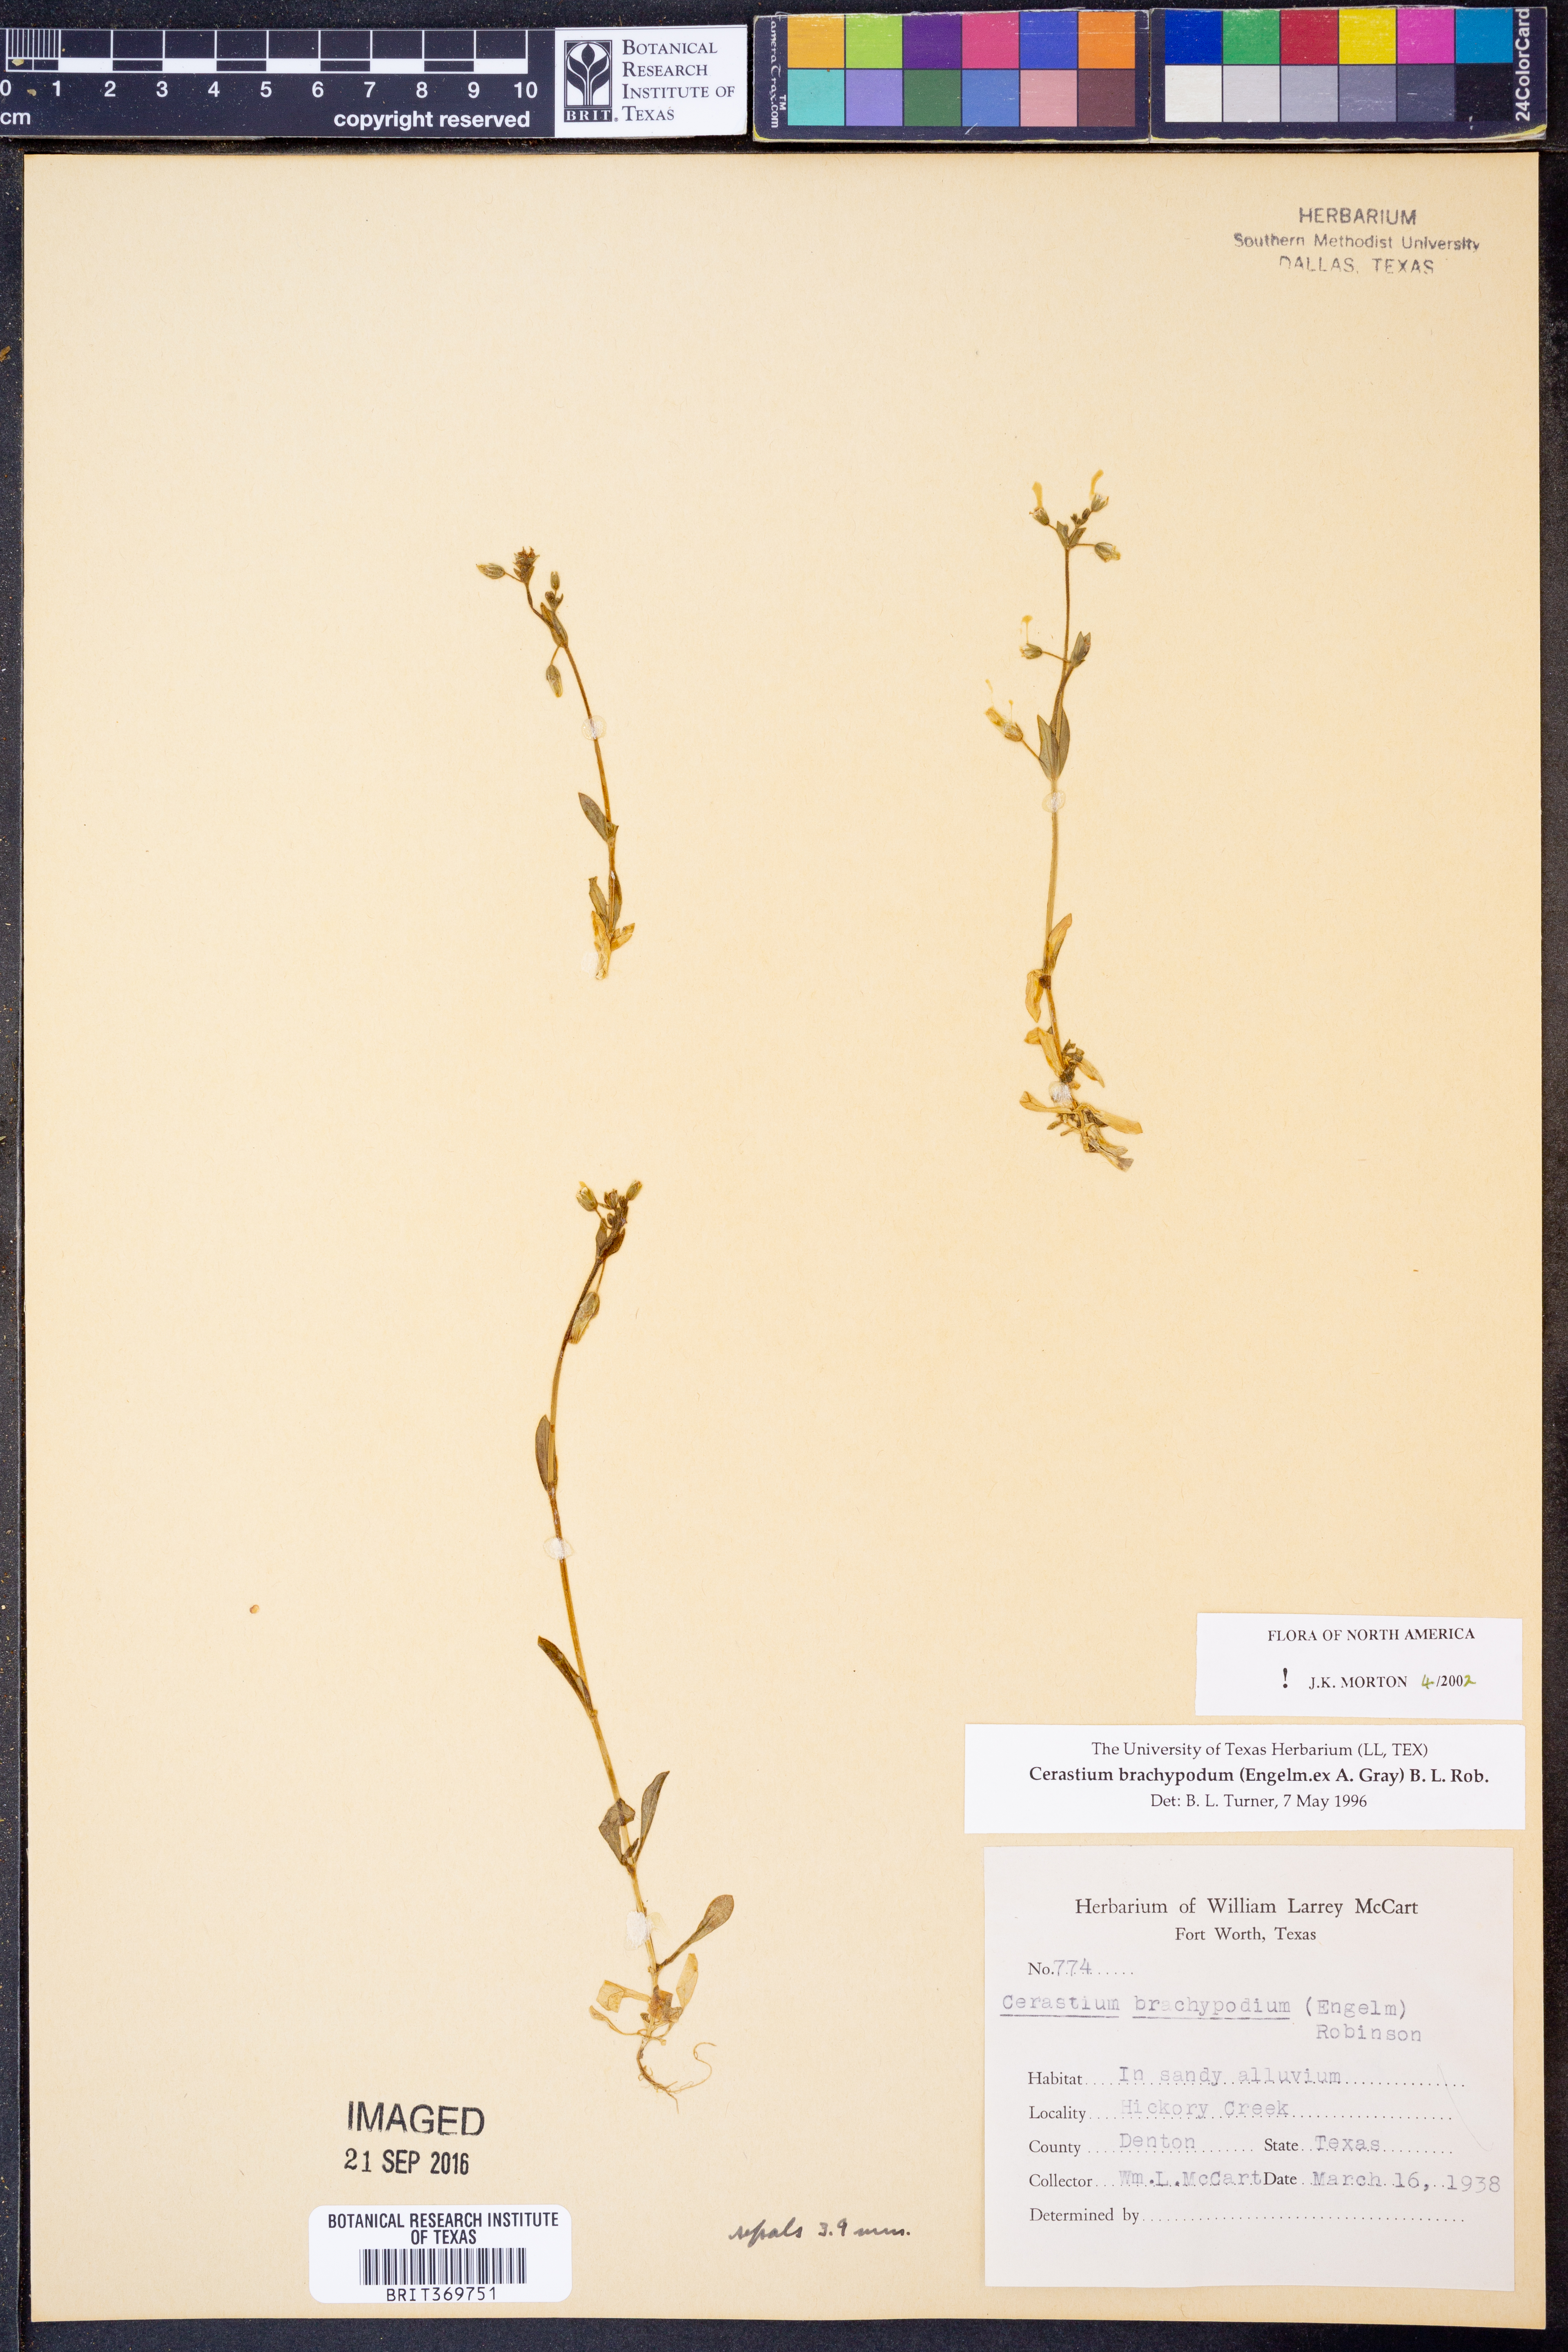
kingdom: Plantae
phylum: Tracheophyta
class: Magnoliopsida
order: Caryophyllales
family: Caryophyllaceae
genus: Cerastium
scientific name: Cerastium brachypodum
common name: Short-pedicelled nodding chickweed
